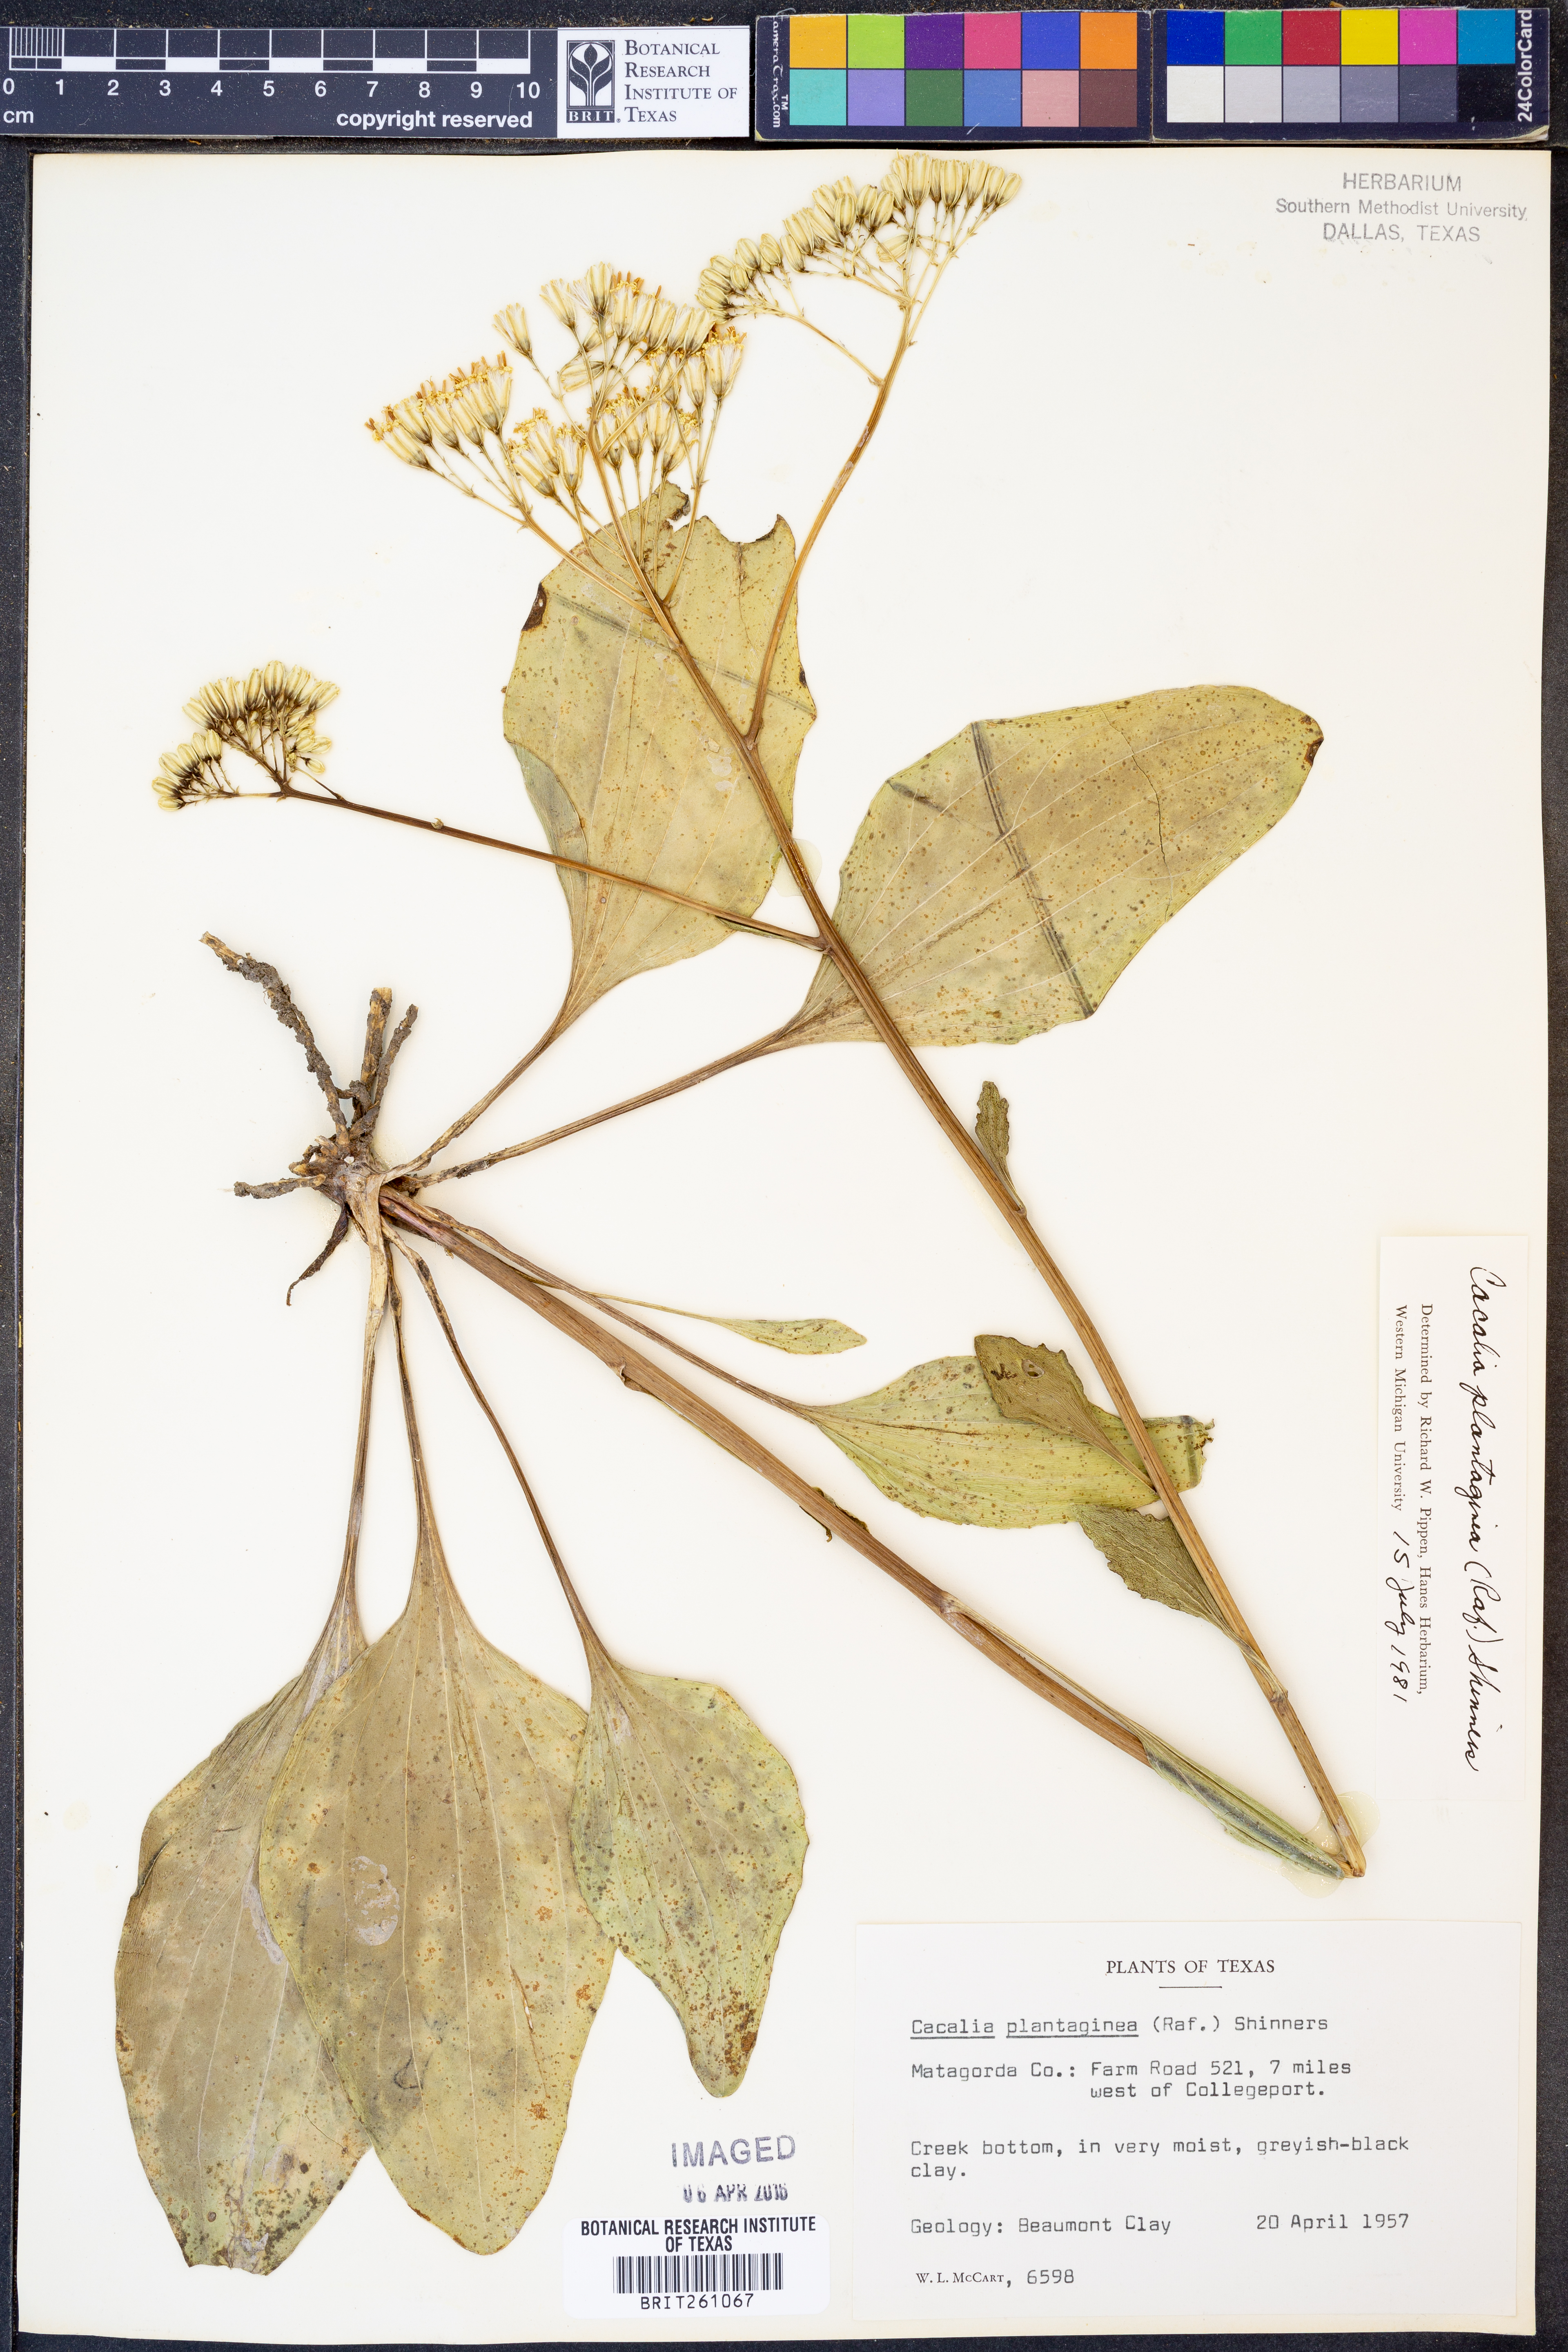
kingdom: Plantae
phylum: Tracheophyta
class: Magnoliopsida
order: Asterales
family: Asteraceae
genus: Arnoglossum
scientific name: Arnoglossum plantagineum
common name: Groove-stemmed indian-plantain
